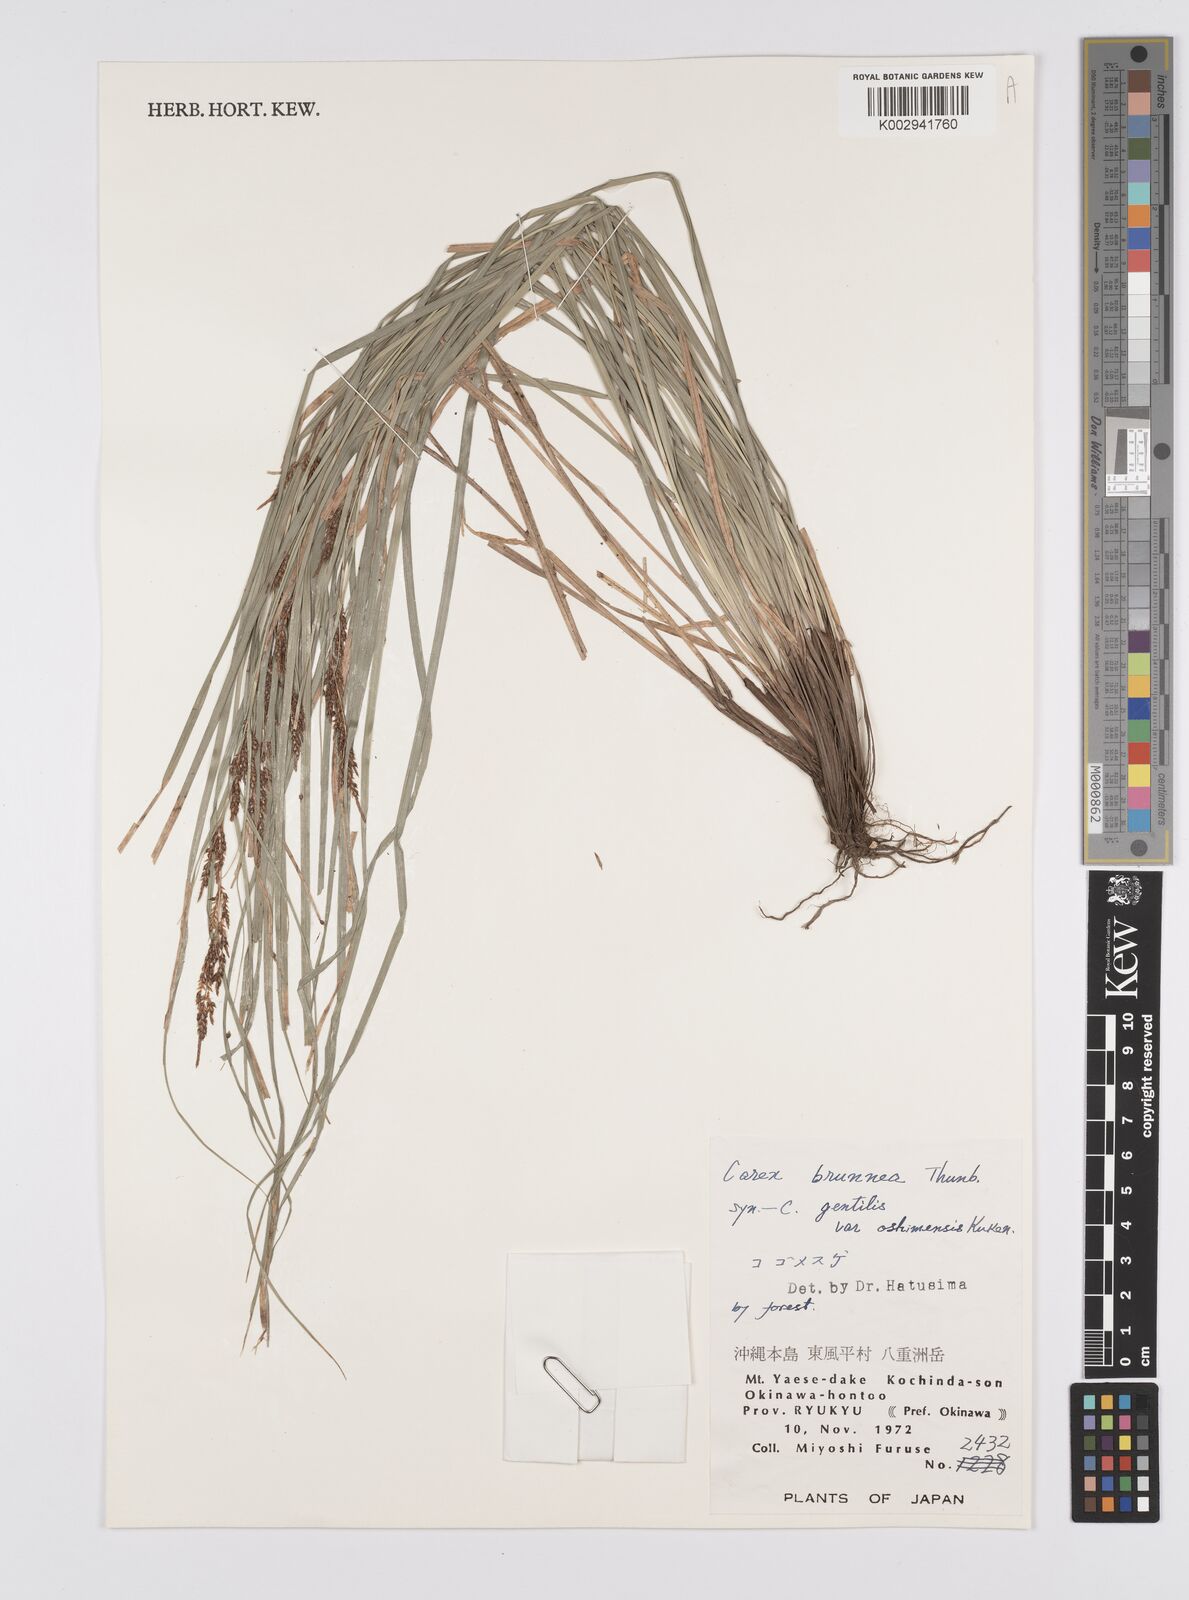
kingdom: Plantae
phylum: Tracheophyta
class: Liliopsida
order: Poales
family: Cyperaceae
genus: Carex
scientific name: Carex brunnea
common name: Greater brown sedge
